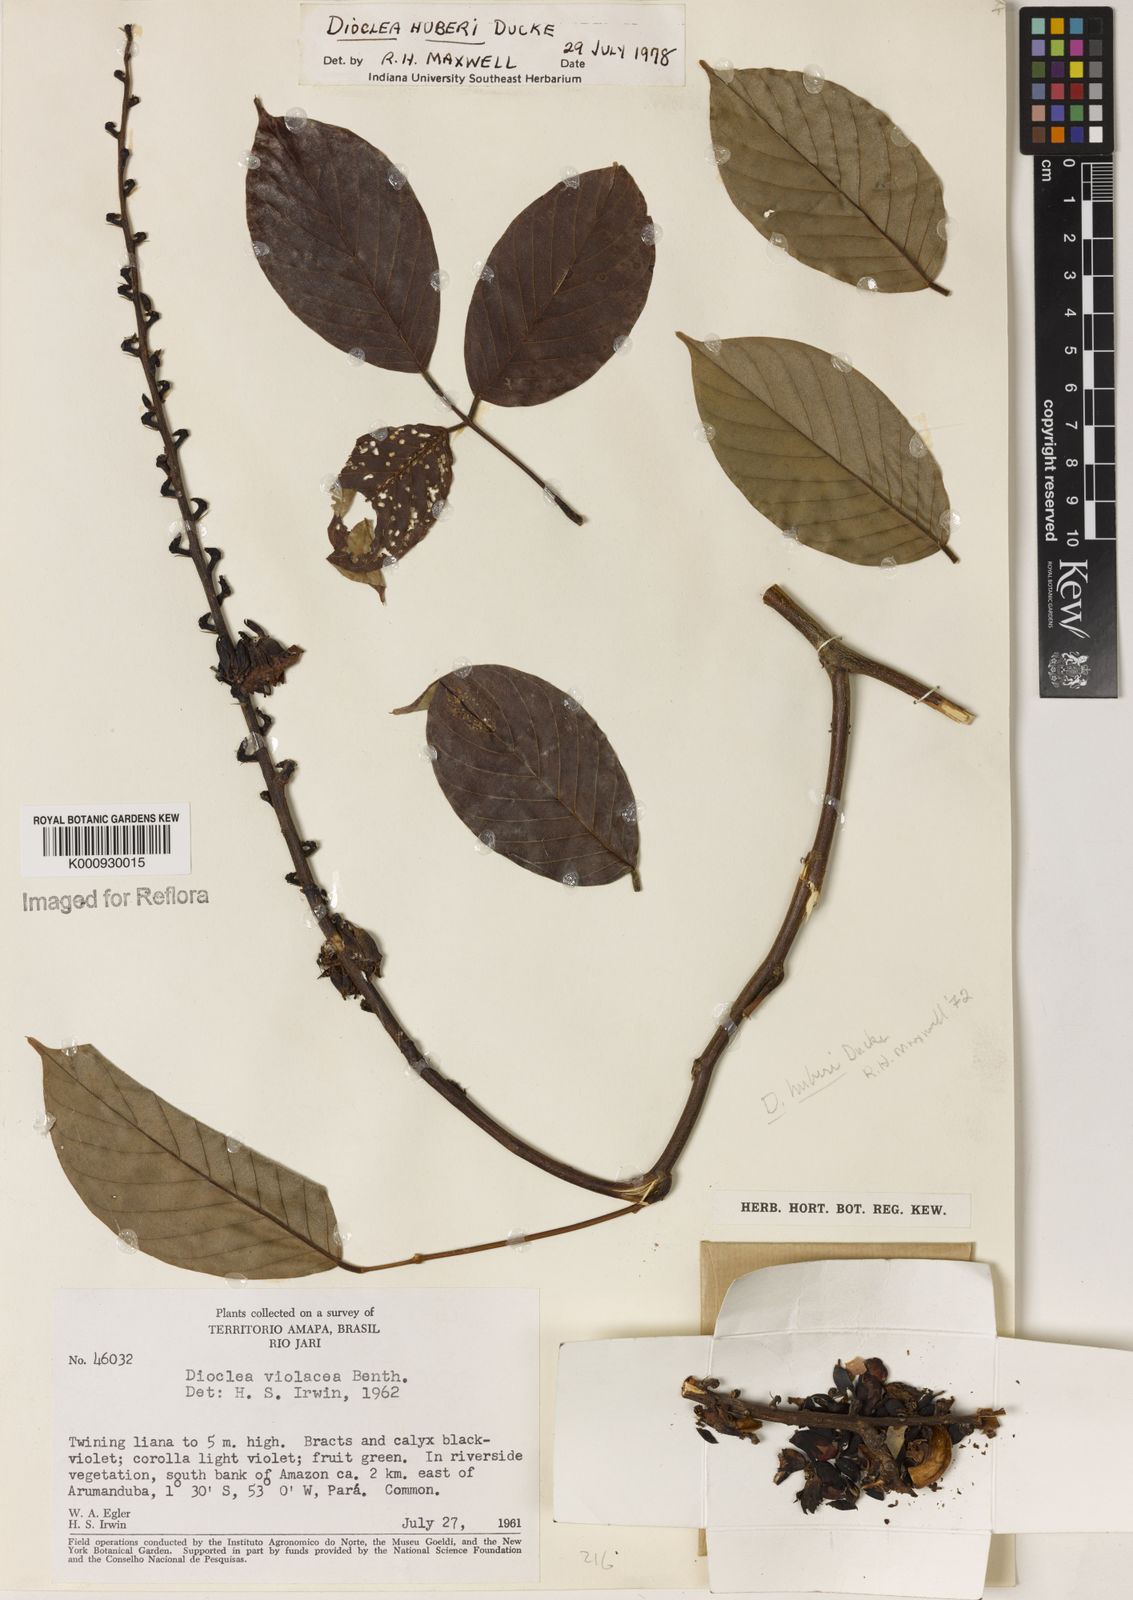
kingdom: Plantae
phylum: Tracheophyta
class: Magnoliopsida
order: Fabales
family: Fabaceae
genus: Macropsychanthus
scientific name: Macropsychanthus huberi
